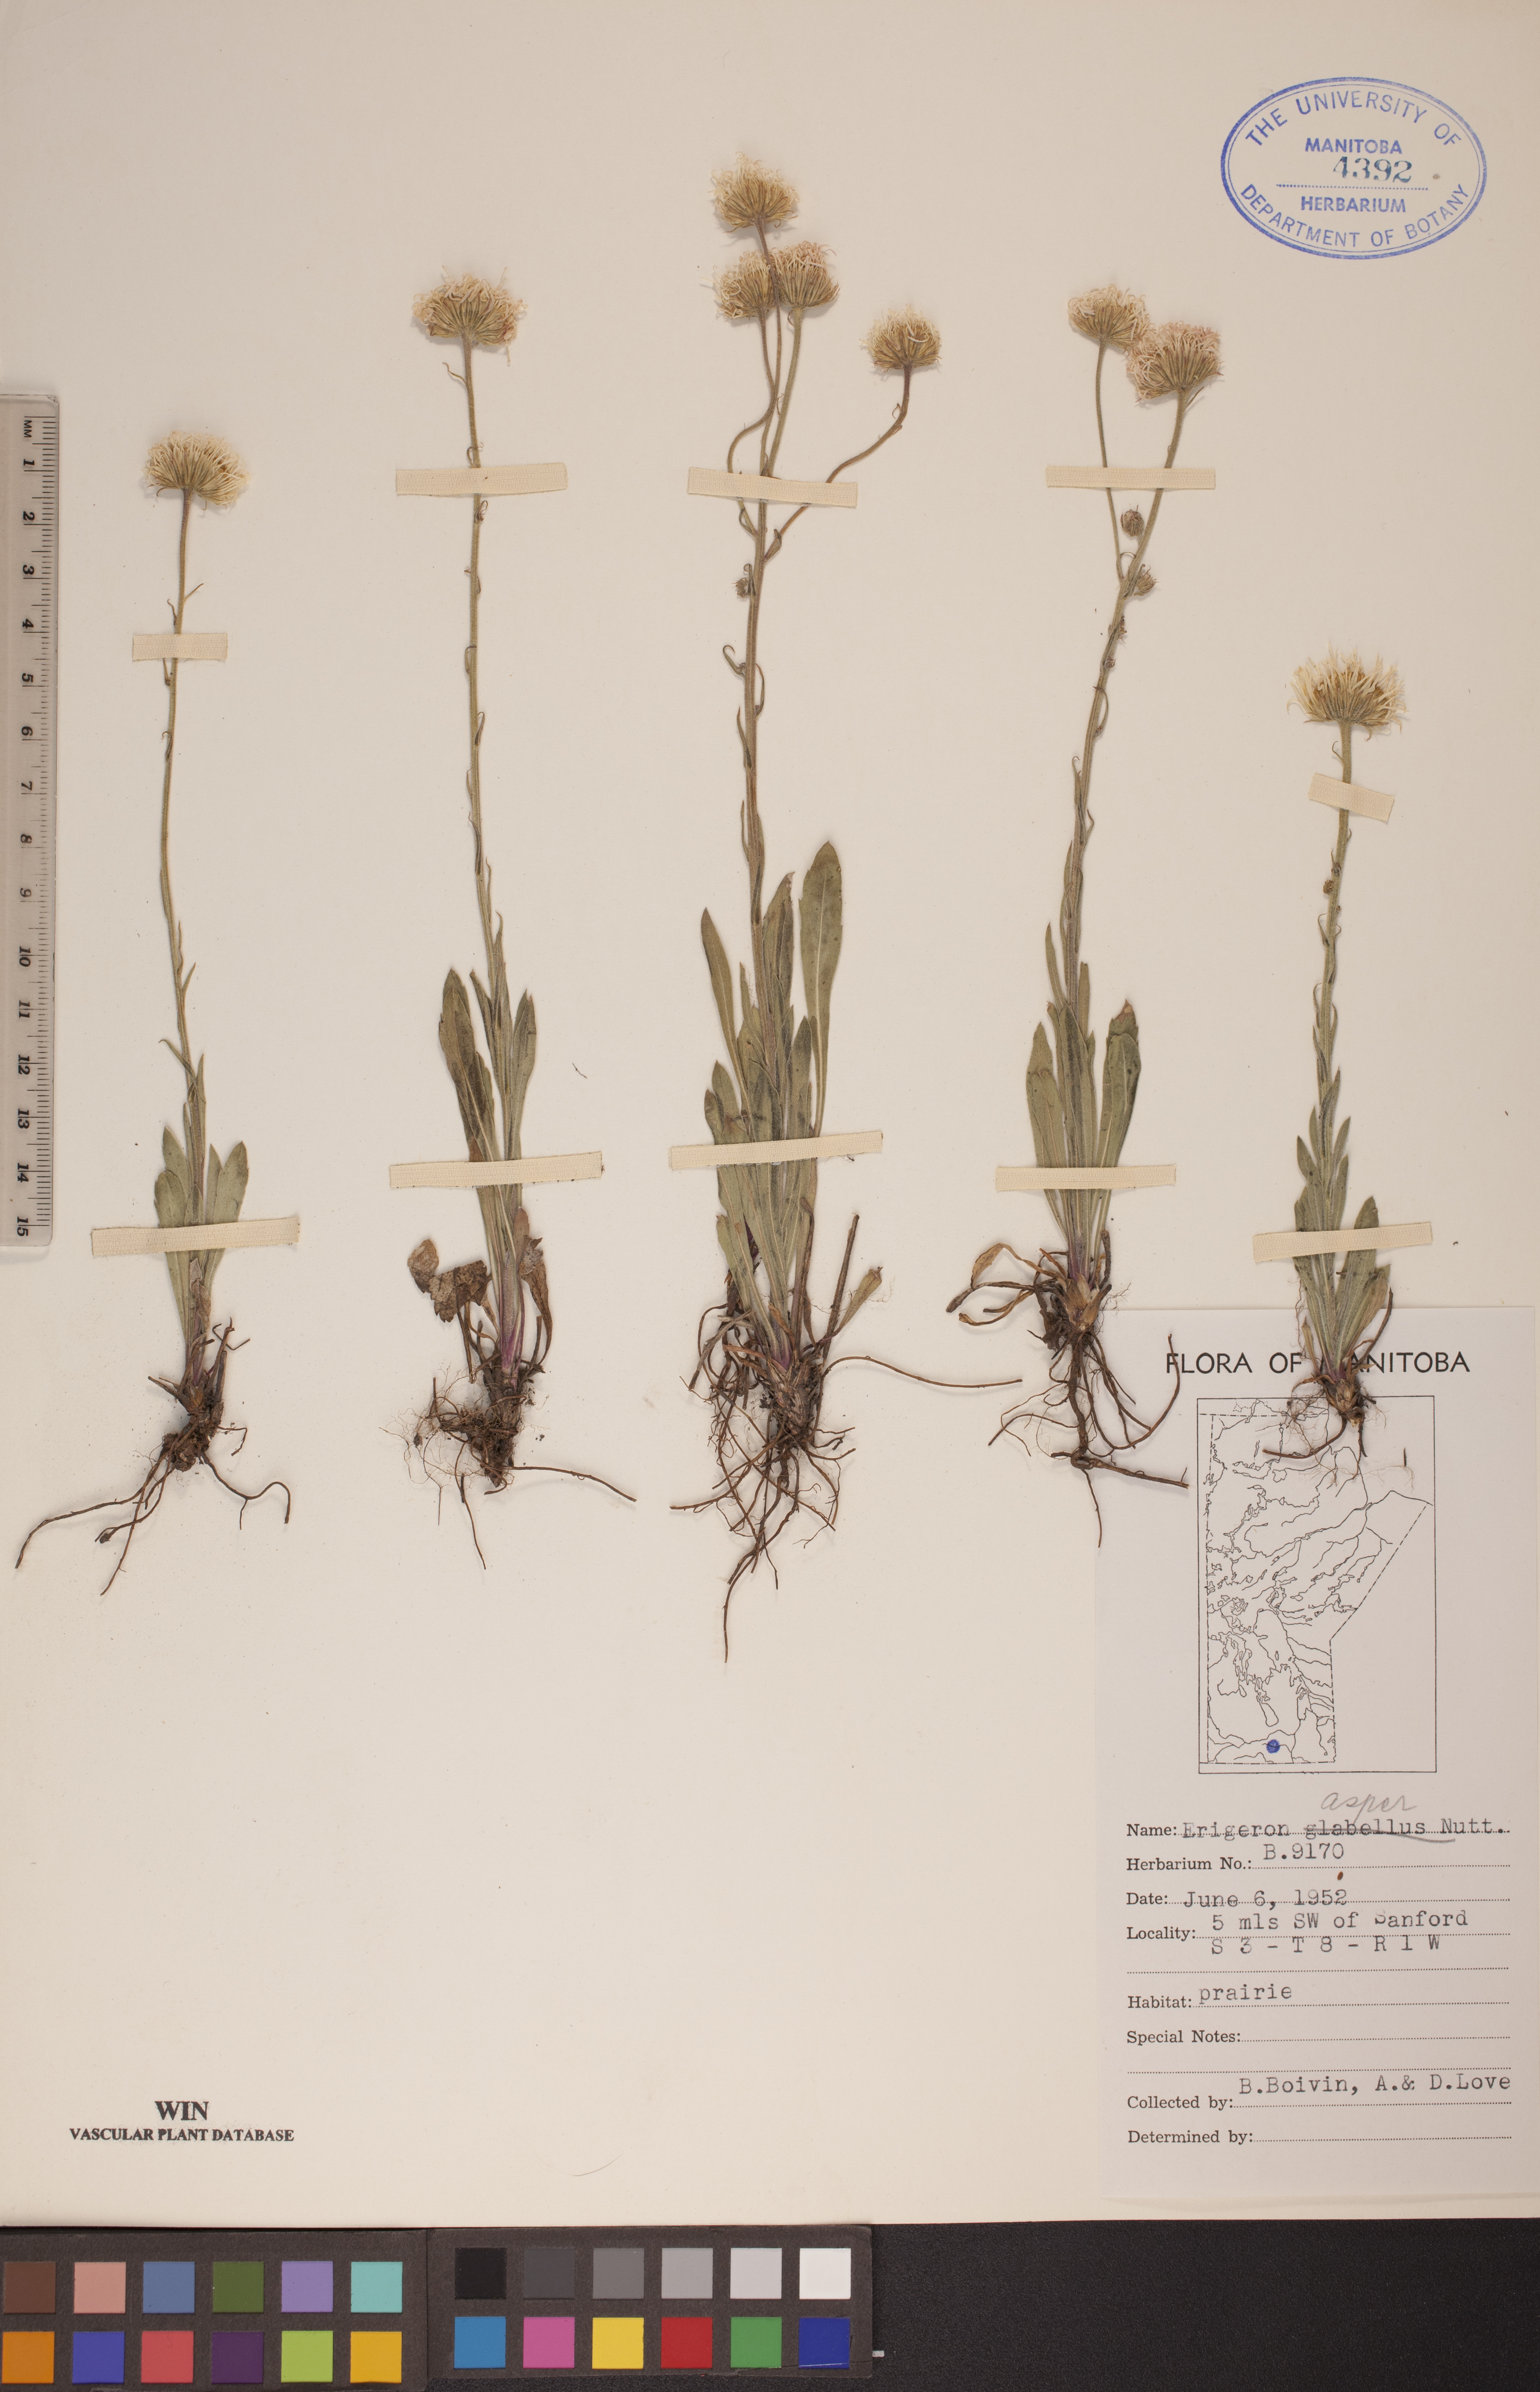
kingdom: Plantae
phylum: Tracheophyta
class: Magnoliopsida
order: Asterales
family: Asteraceae
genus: Erigeron
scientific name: Erigeron glabellus
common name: Smooth fleabane
